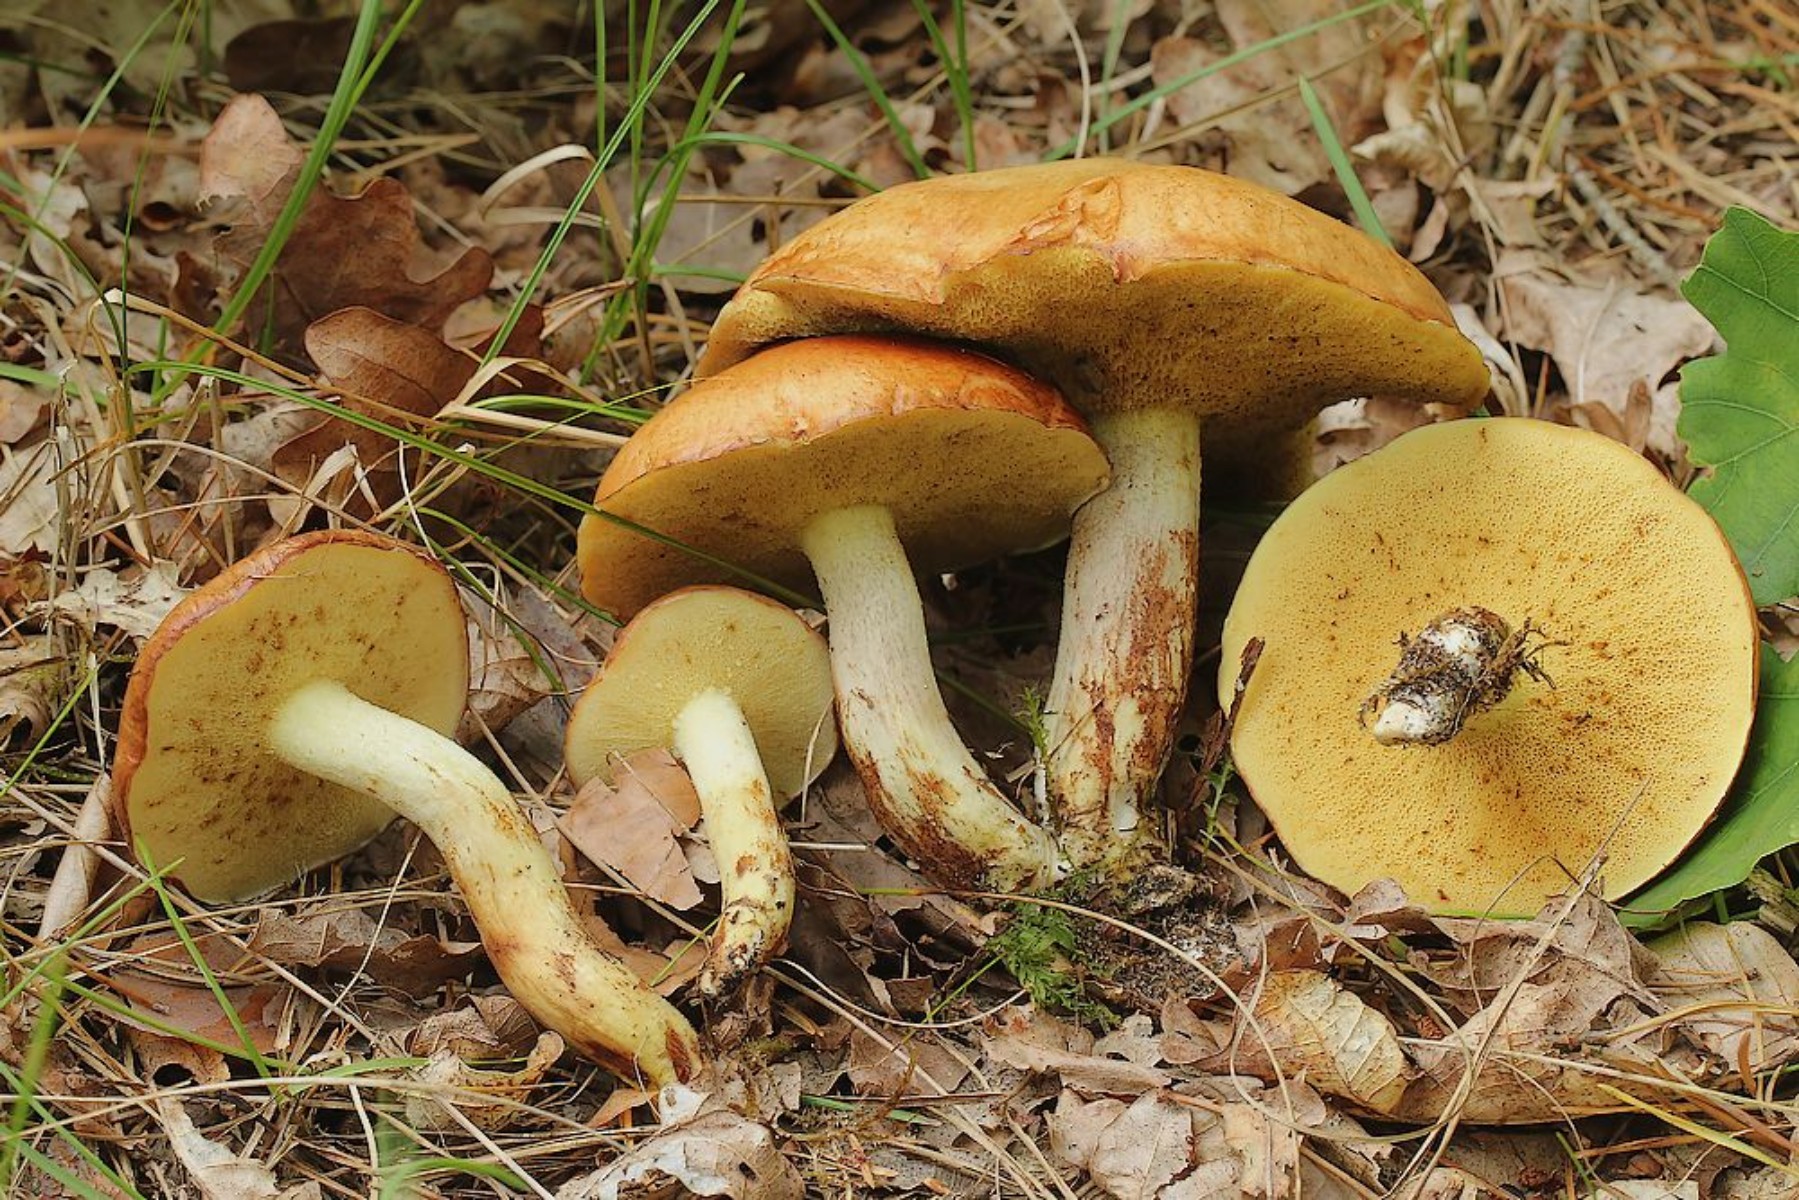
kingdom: Fungi
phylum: Basidiomycota
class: Agaricomycetes
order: Boletales
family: Suillaceae
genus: Suillus
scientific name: Suillus granulatus
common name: kornet slimrørhat
